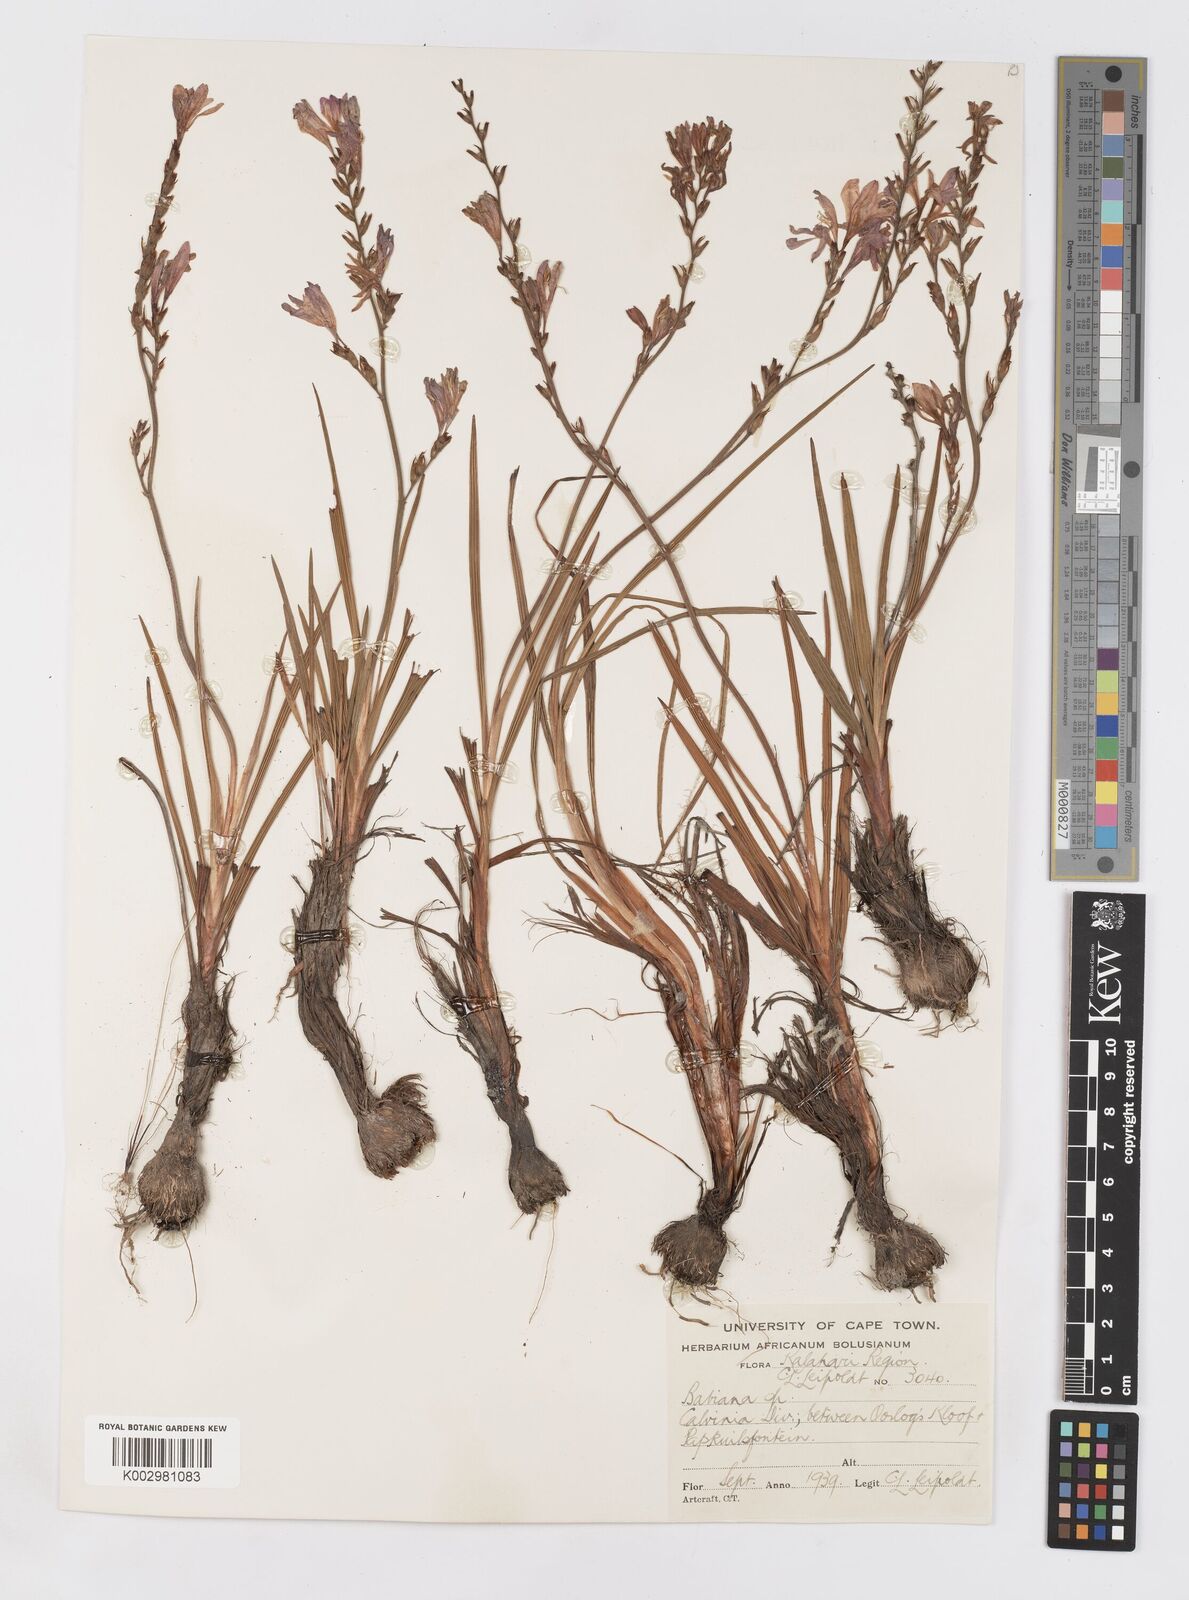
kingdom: Plantae
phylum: Tracheophyta
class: Liliopsida
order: Asparagales
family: Iridaceae
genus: Babiana
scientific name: Babiana lineolata
